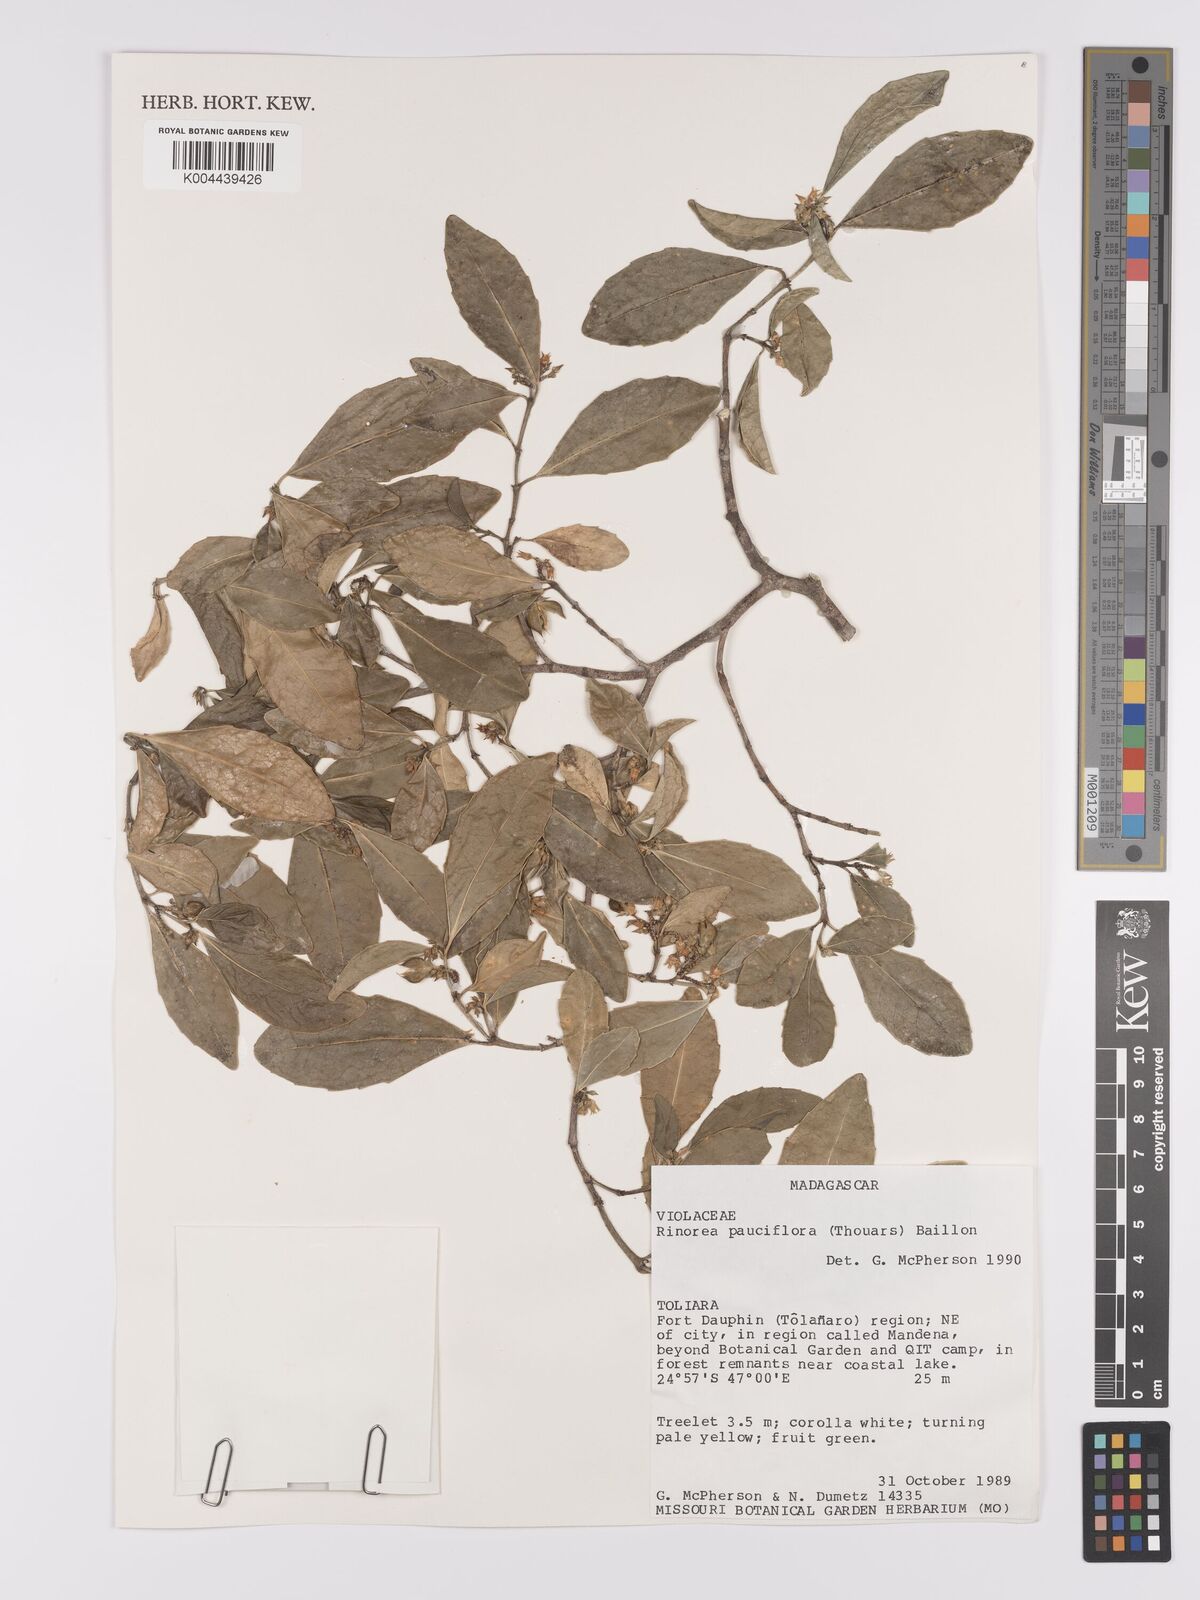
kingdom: Plantae
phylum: Tracheophyta
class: Magnoliopsida
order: Malpighiales
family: Violaceae
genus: Rinorea
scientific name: Rinorea pauciflora
